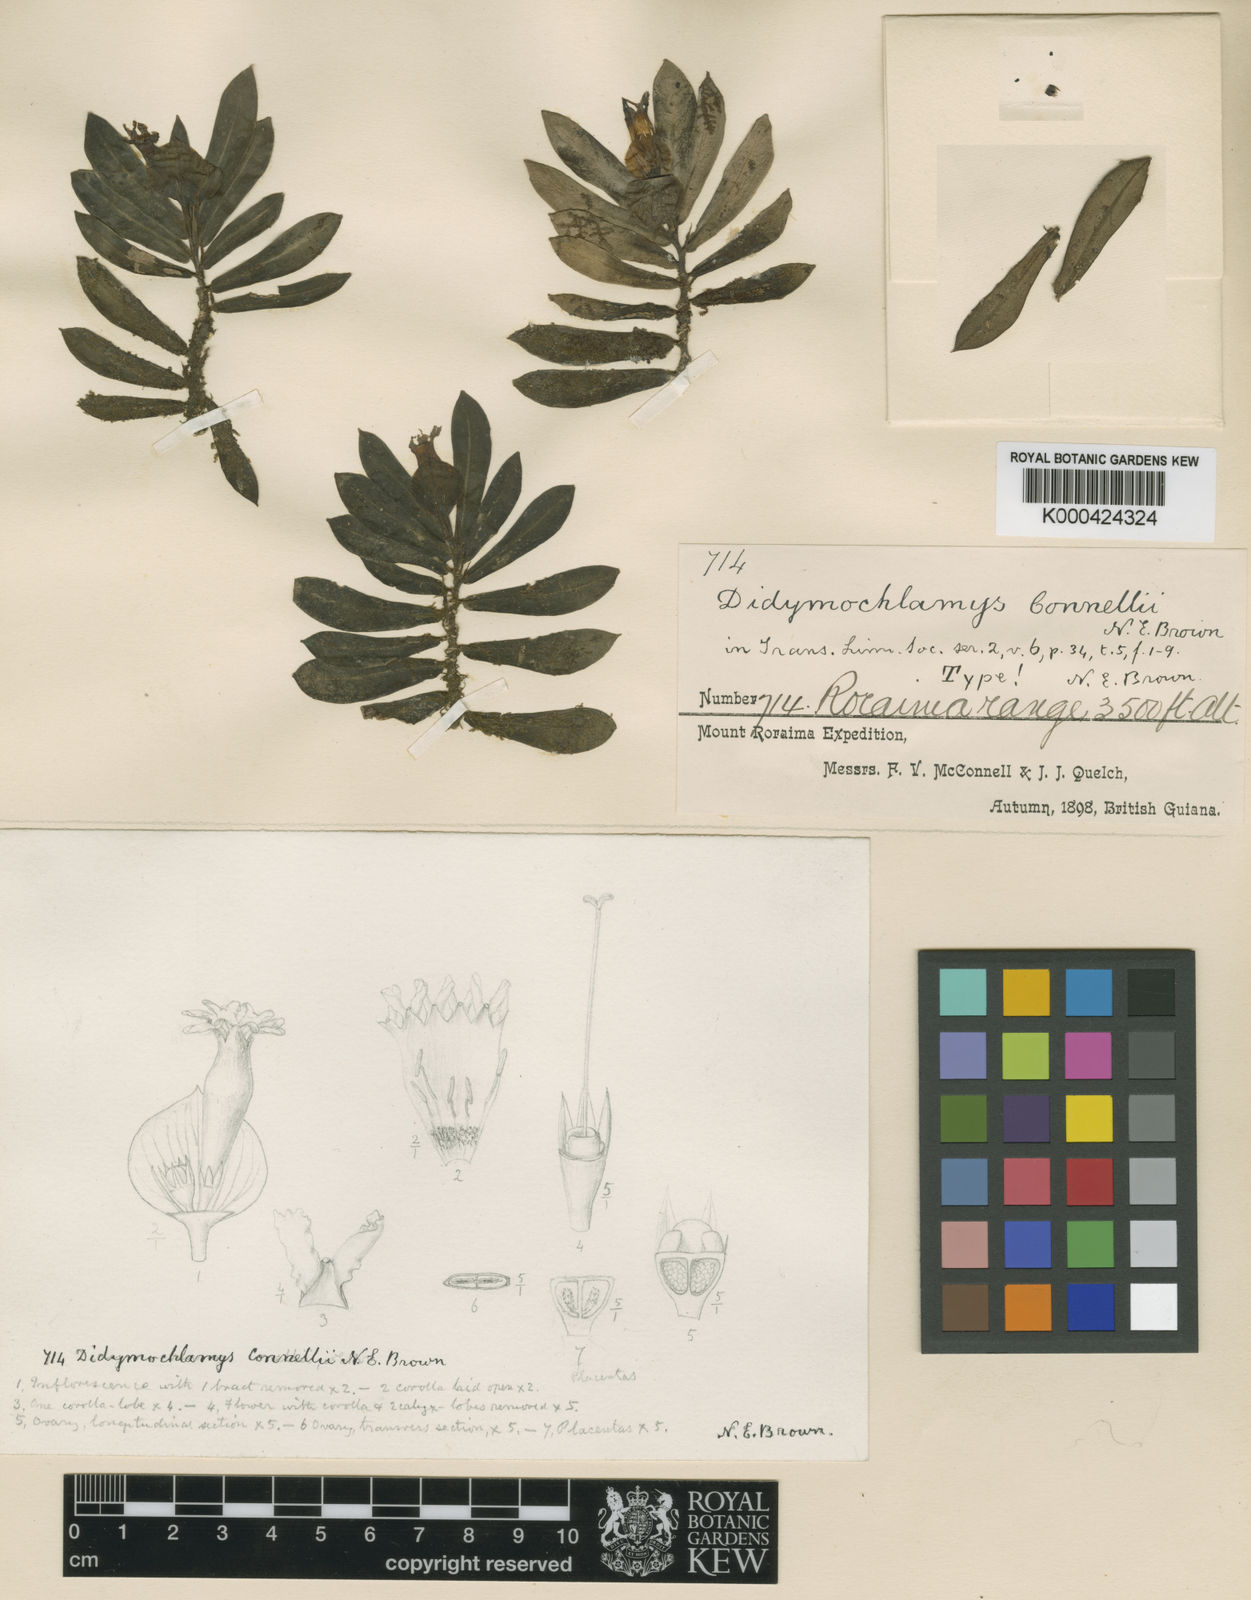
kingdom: Plantae
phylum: Tracheophyta
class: Magnoliopsida
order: Gentianales
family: Rubiaceae
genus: Didymochlamys
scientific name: Didymochlamys connellii
